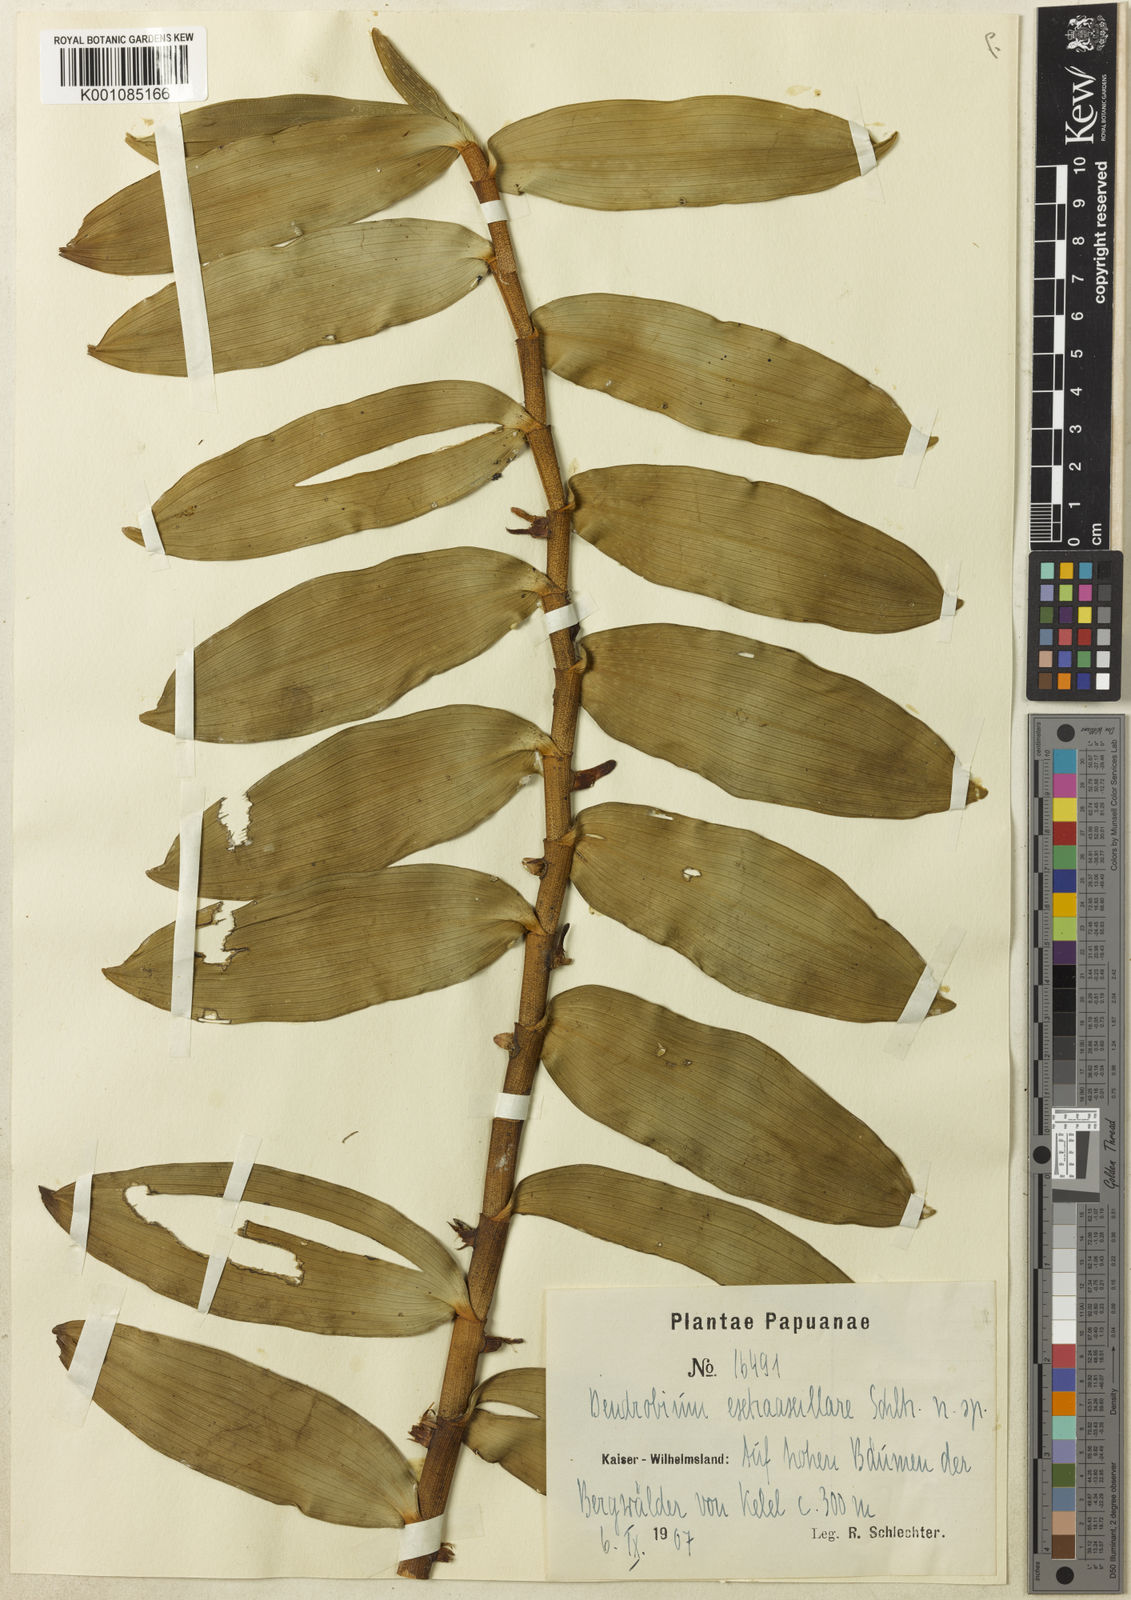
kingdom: Plantae
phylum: Tracheophyta
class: Liliopsida
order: Asparagales
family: Orchidaceae
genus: Dendrobium
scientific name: Dendrobium extra-axillare
